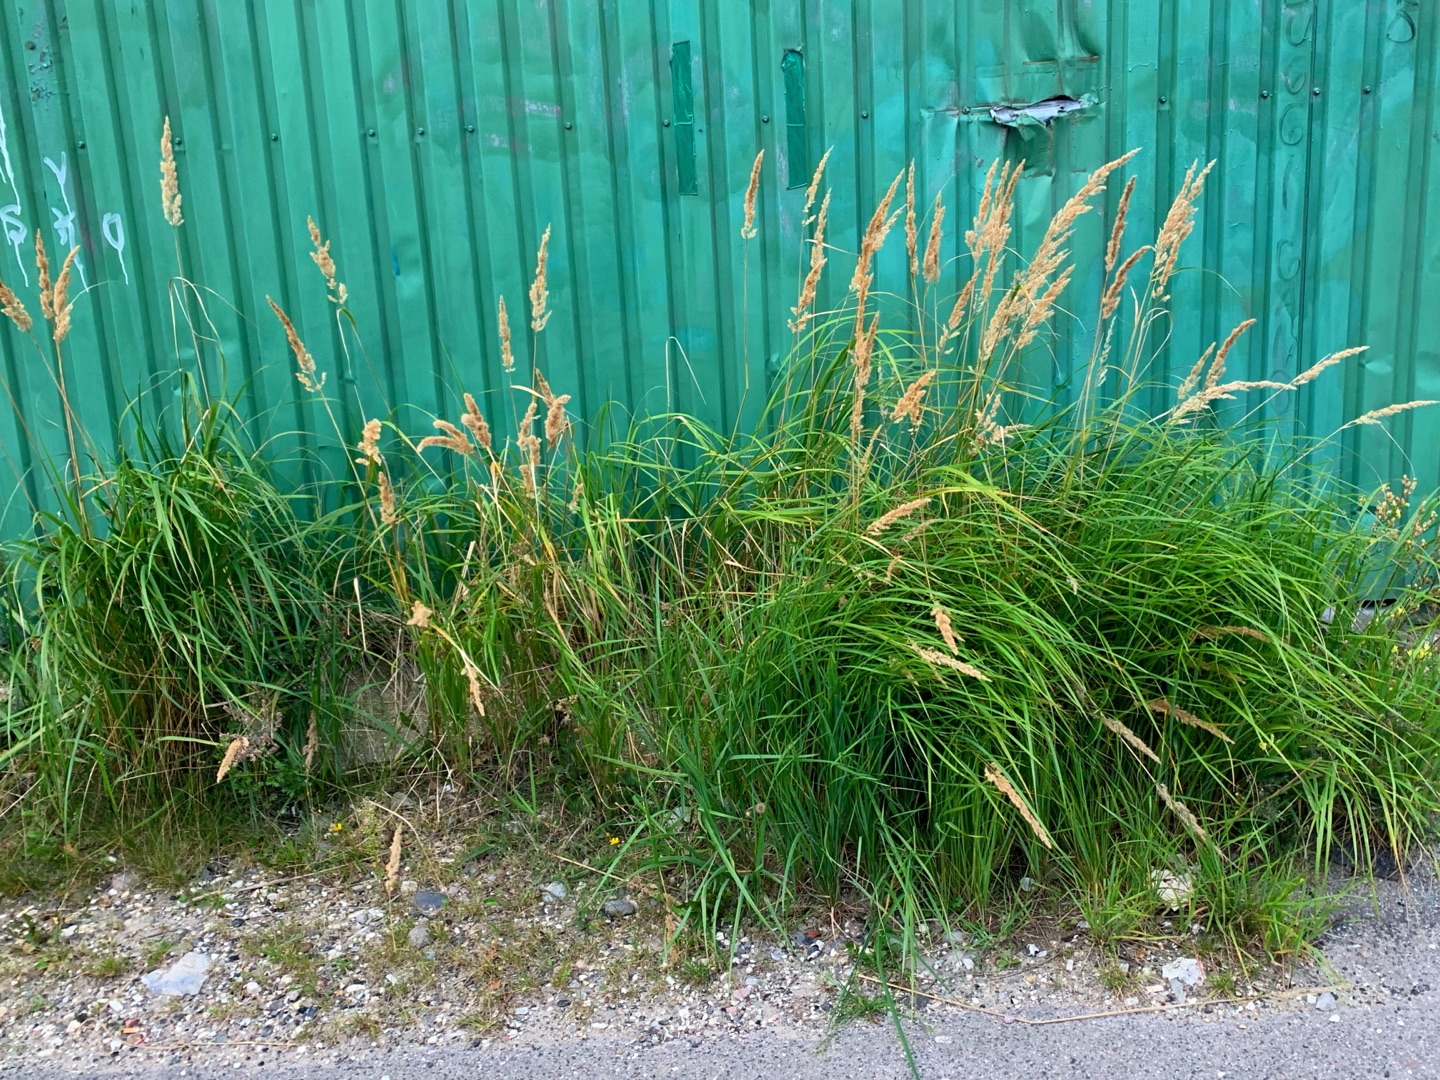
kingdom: Plantae
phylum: Tracheophyta
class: Liliopsida
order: Poales
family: Poaceae
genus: Calamagrostis
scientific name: Calamagrostis epigejos
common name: Bjerg-rørhvene
